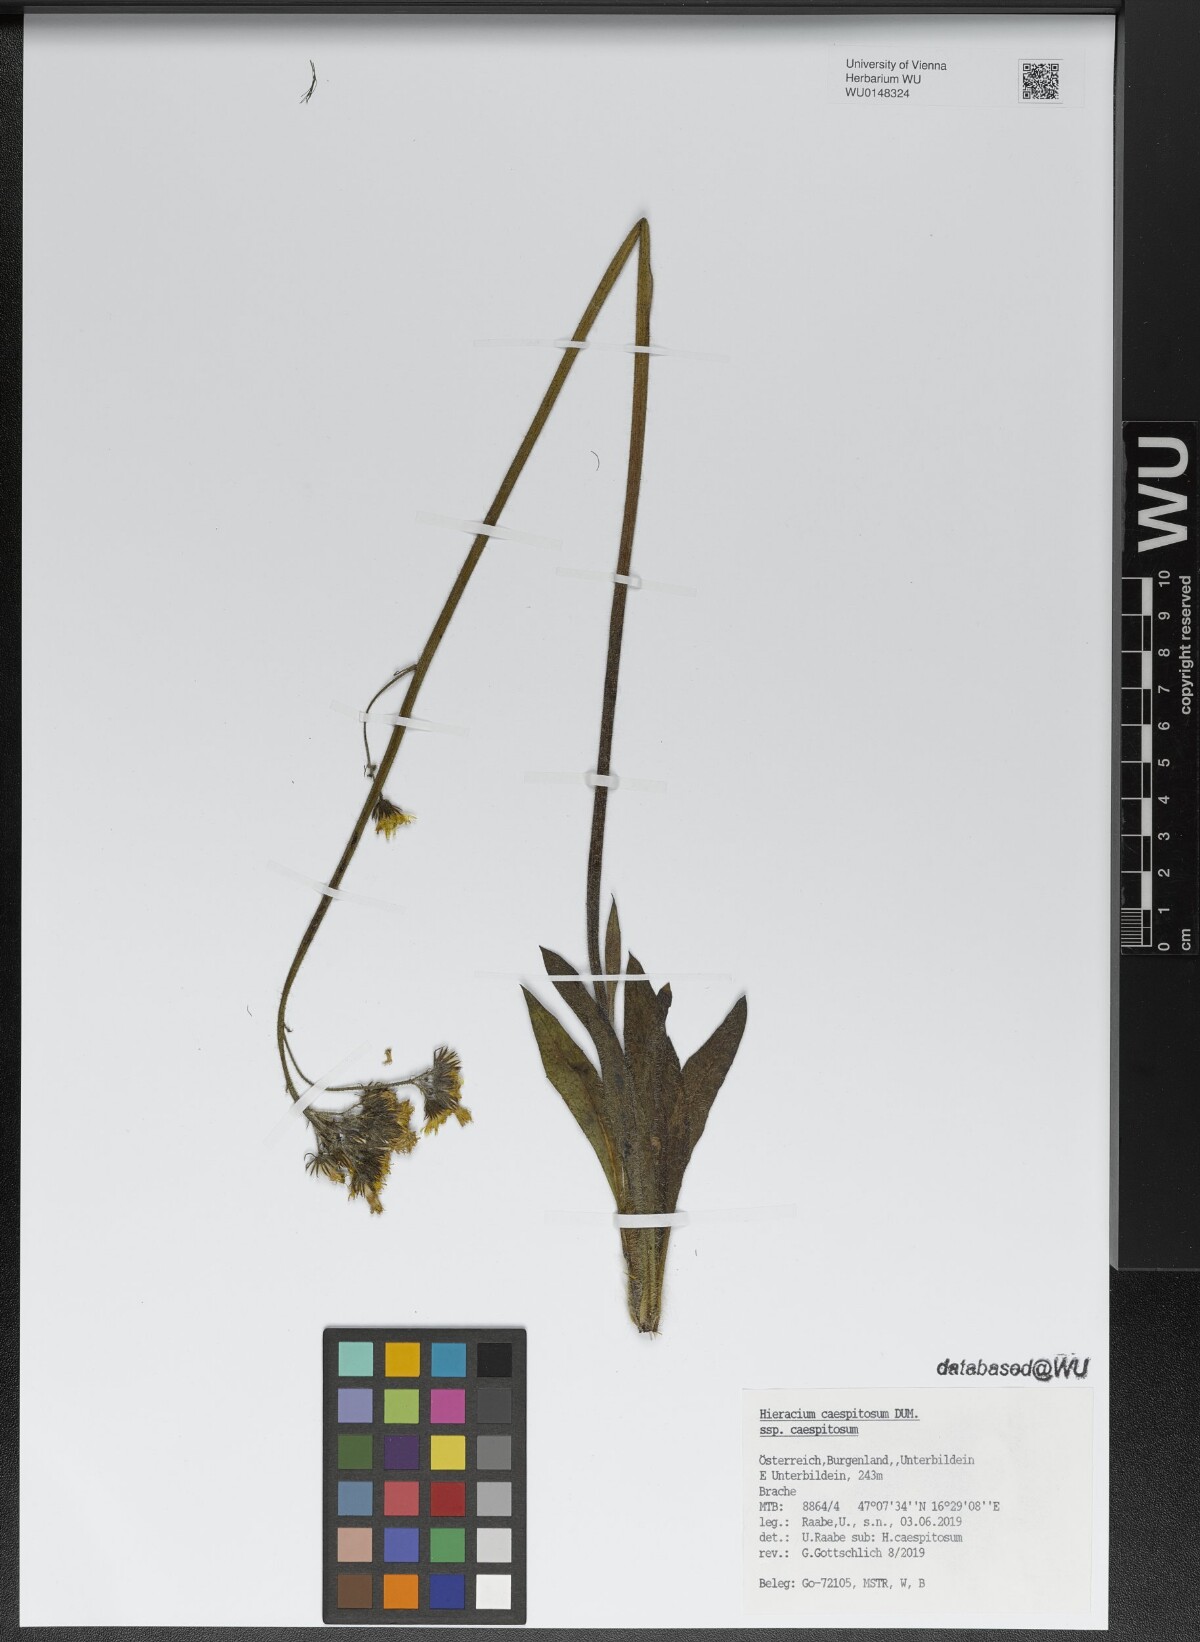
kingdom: Plantae
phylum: Tracheophyta
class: Magnoliopsida
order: Asterales
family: Asteraceae
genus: Pilosella
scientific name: Pilosella caespitosa
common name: Yellow fox-and-cubs
